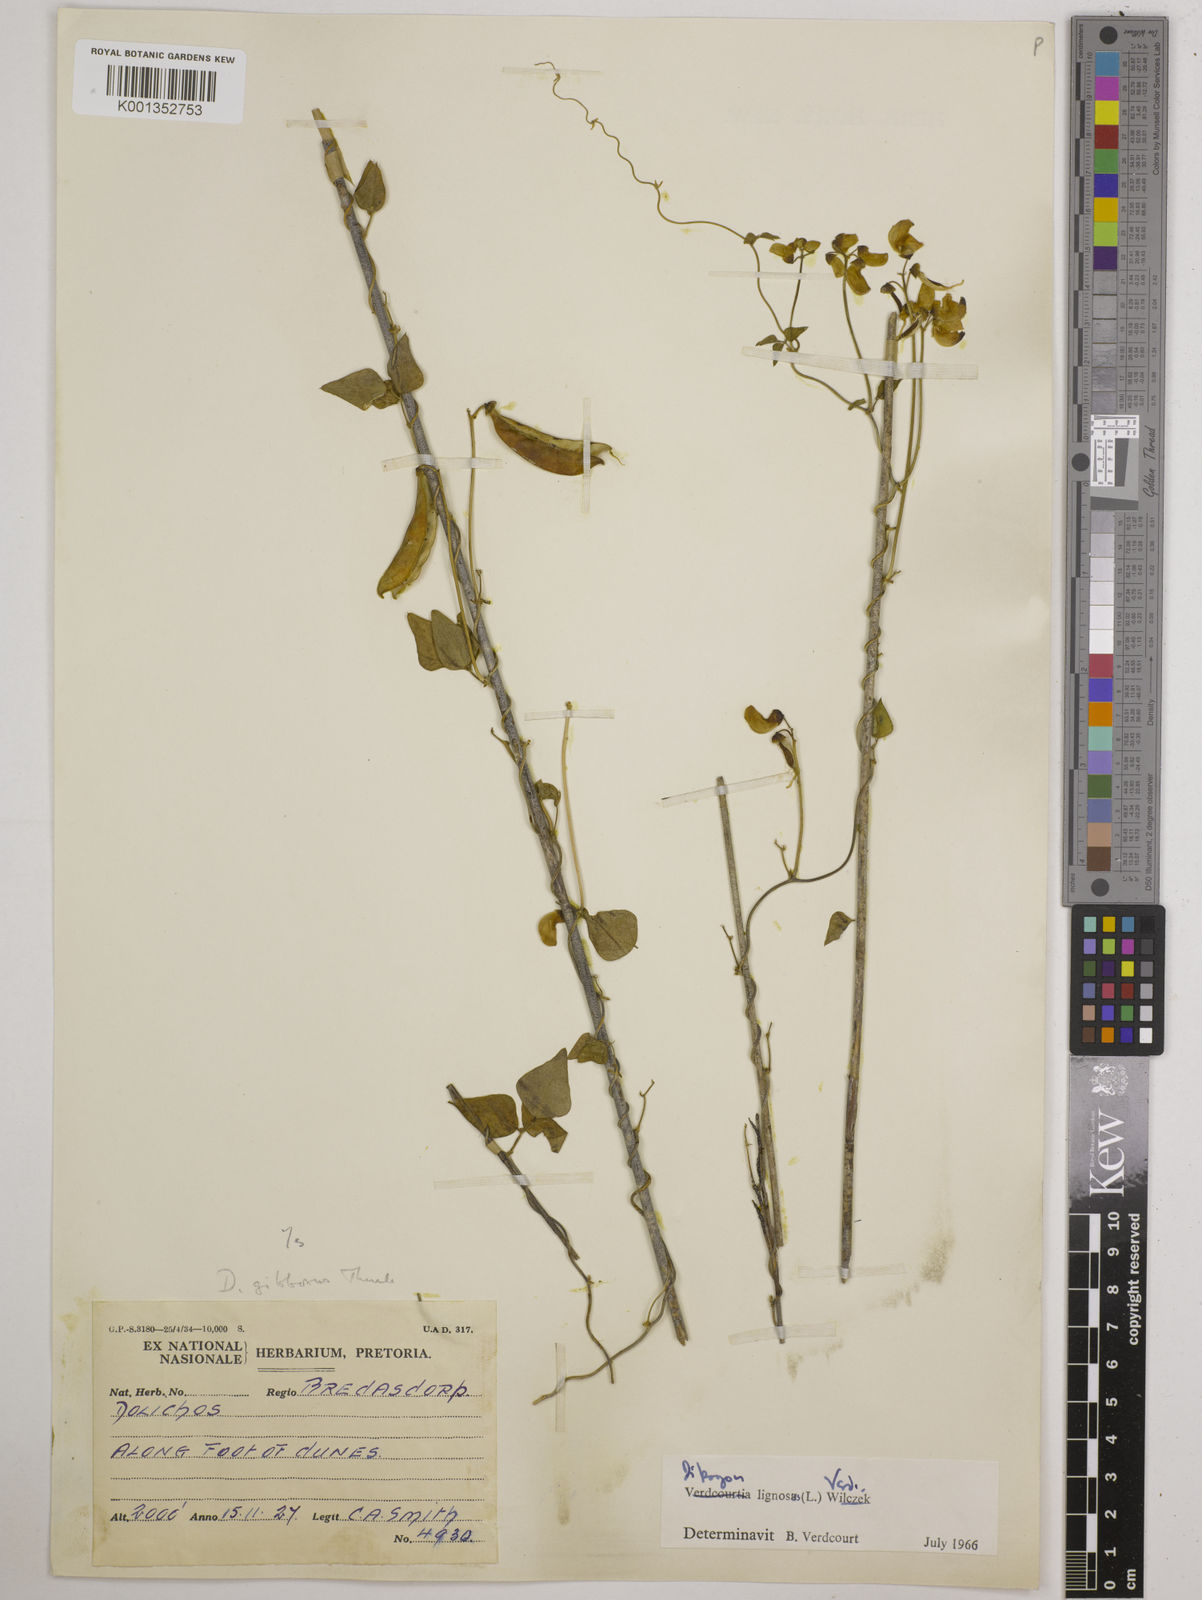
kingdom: Plantae
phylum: Tracheophyta
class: Magnoliopsida
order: Fabales
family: Fabaceae
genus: Dipogon
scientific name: Dipogon lignosus
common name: Okie bean
